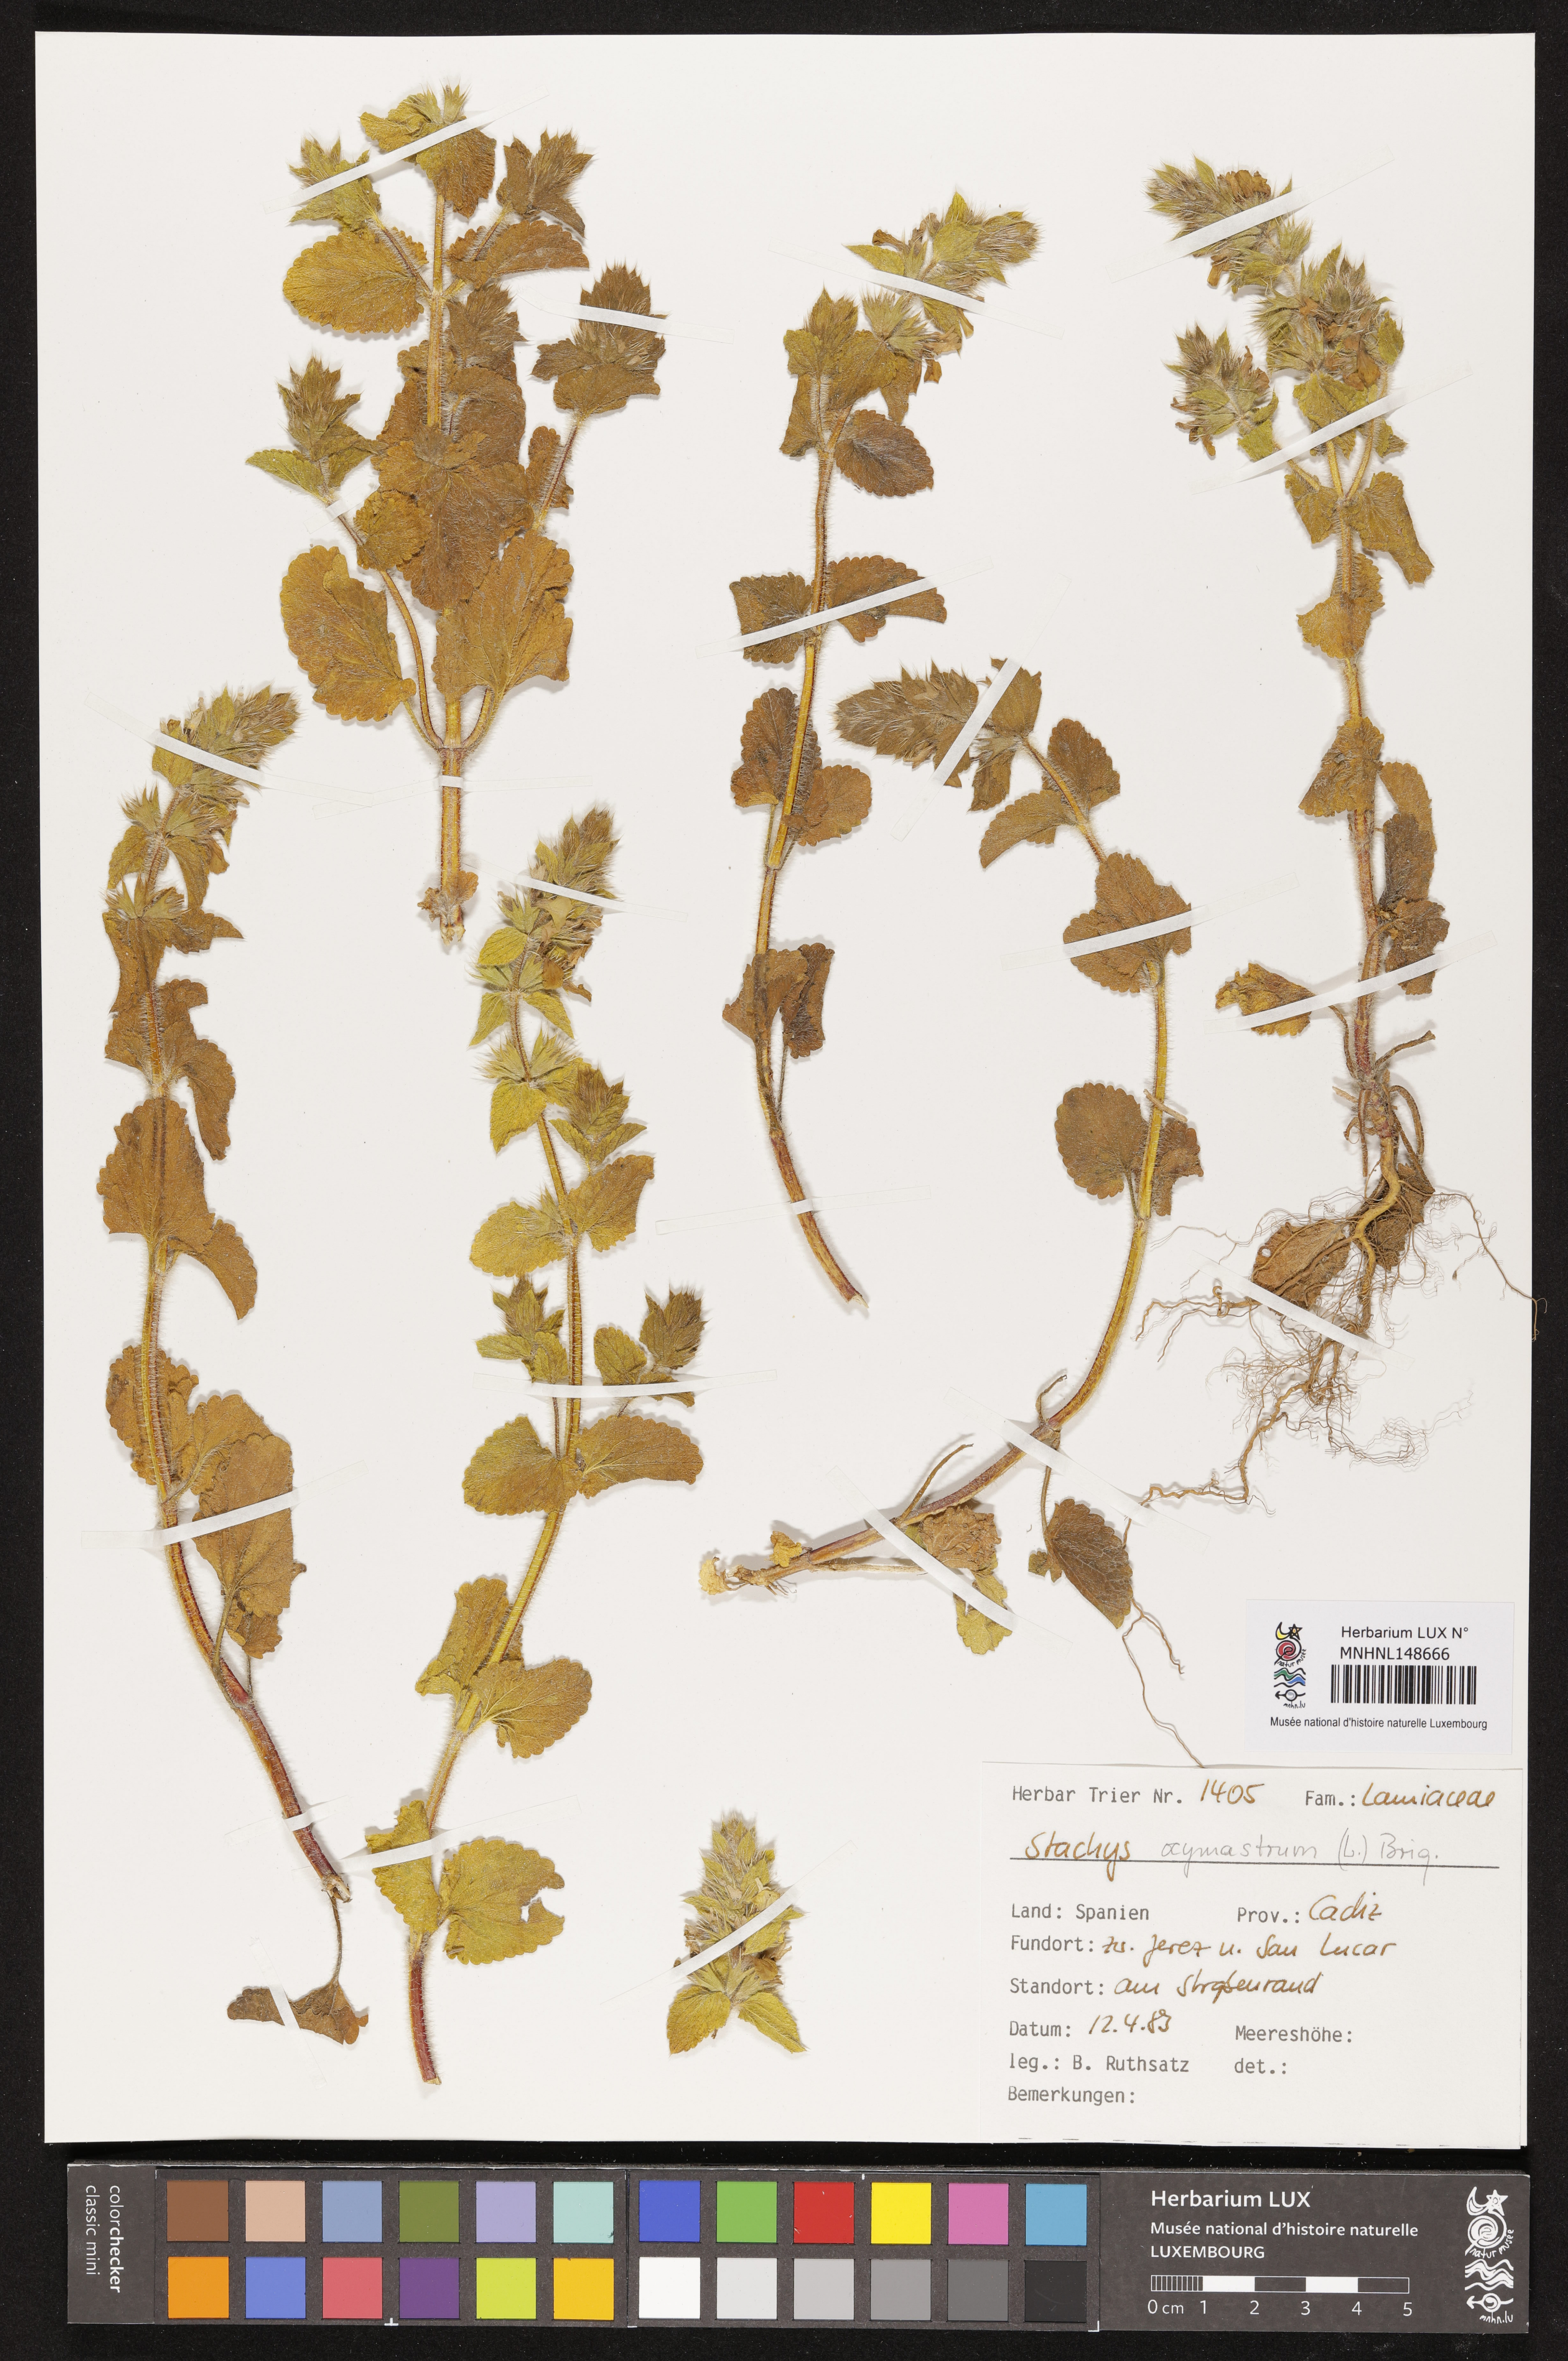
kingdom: Plantae
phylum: Tracheophyta
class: Magnoliopsida
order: Lamiales
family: Lamiaceae
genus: Stachys
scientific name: Stachys ocymastrum
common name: Italian hedgenettle
